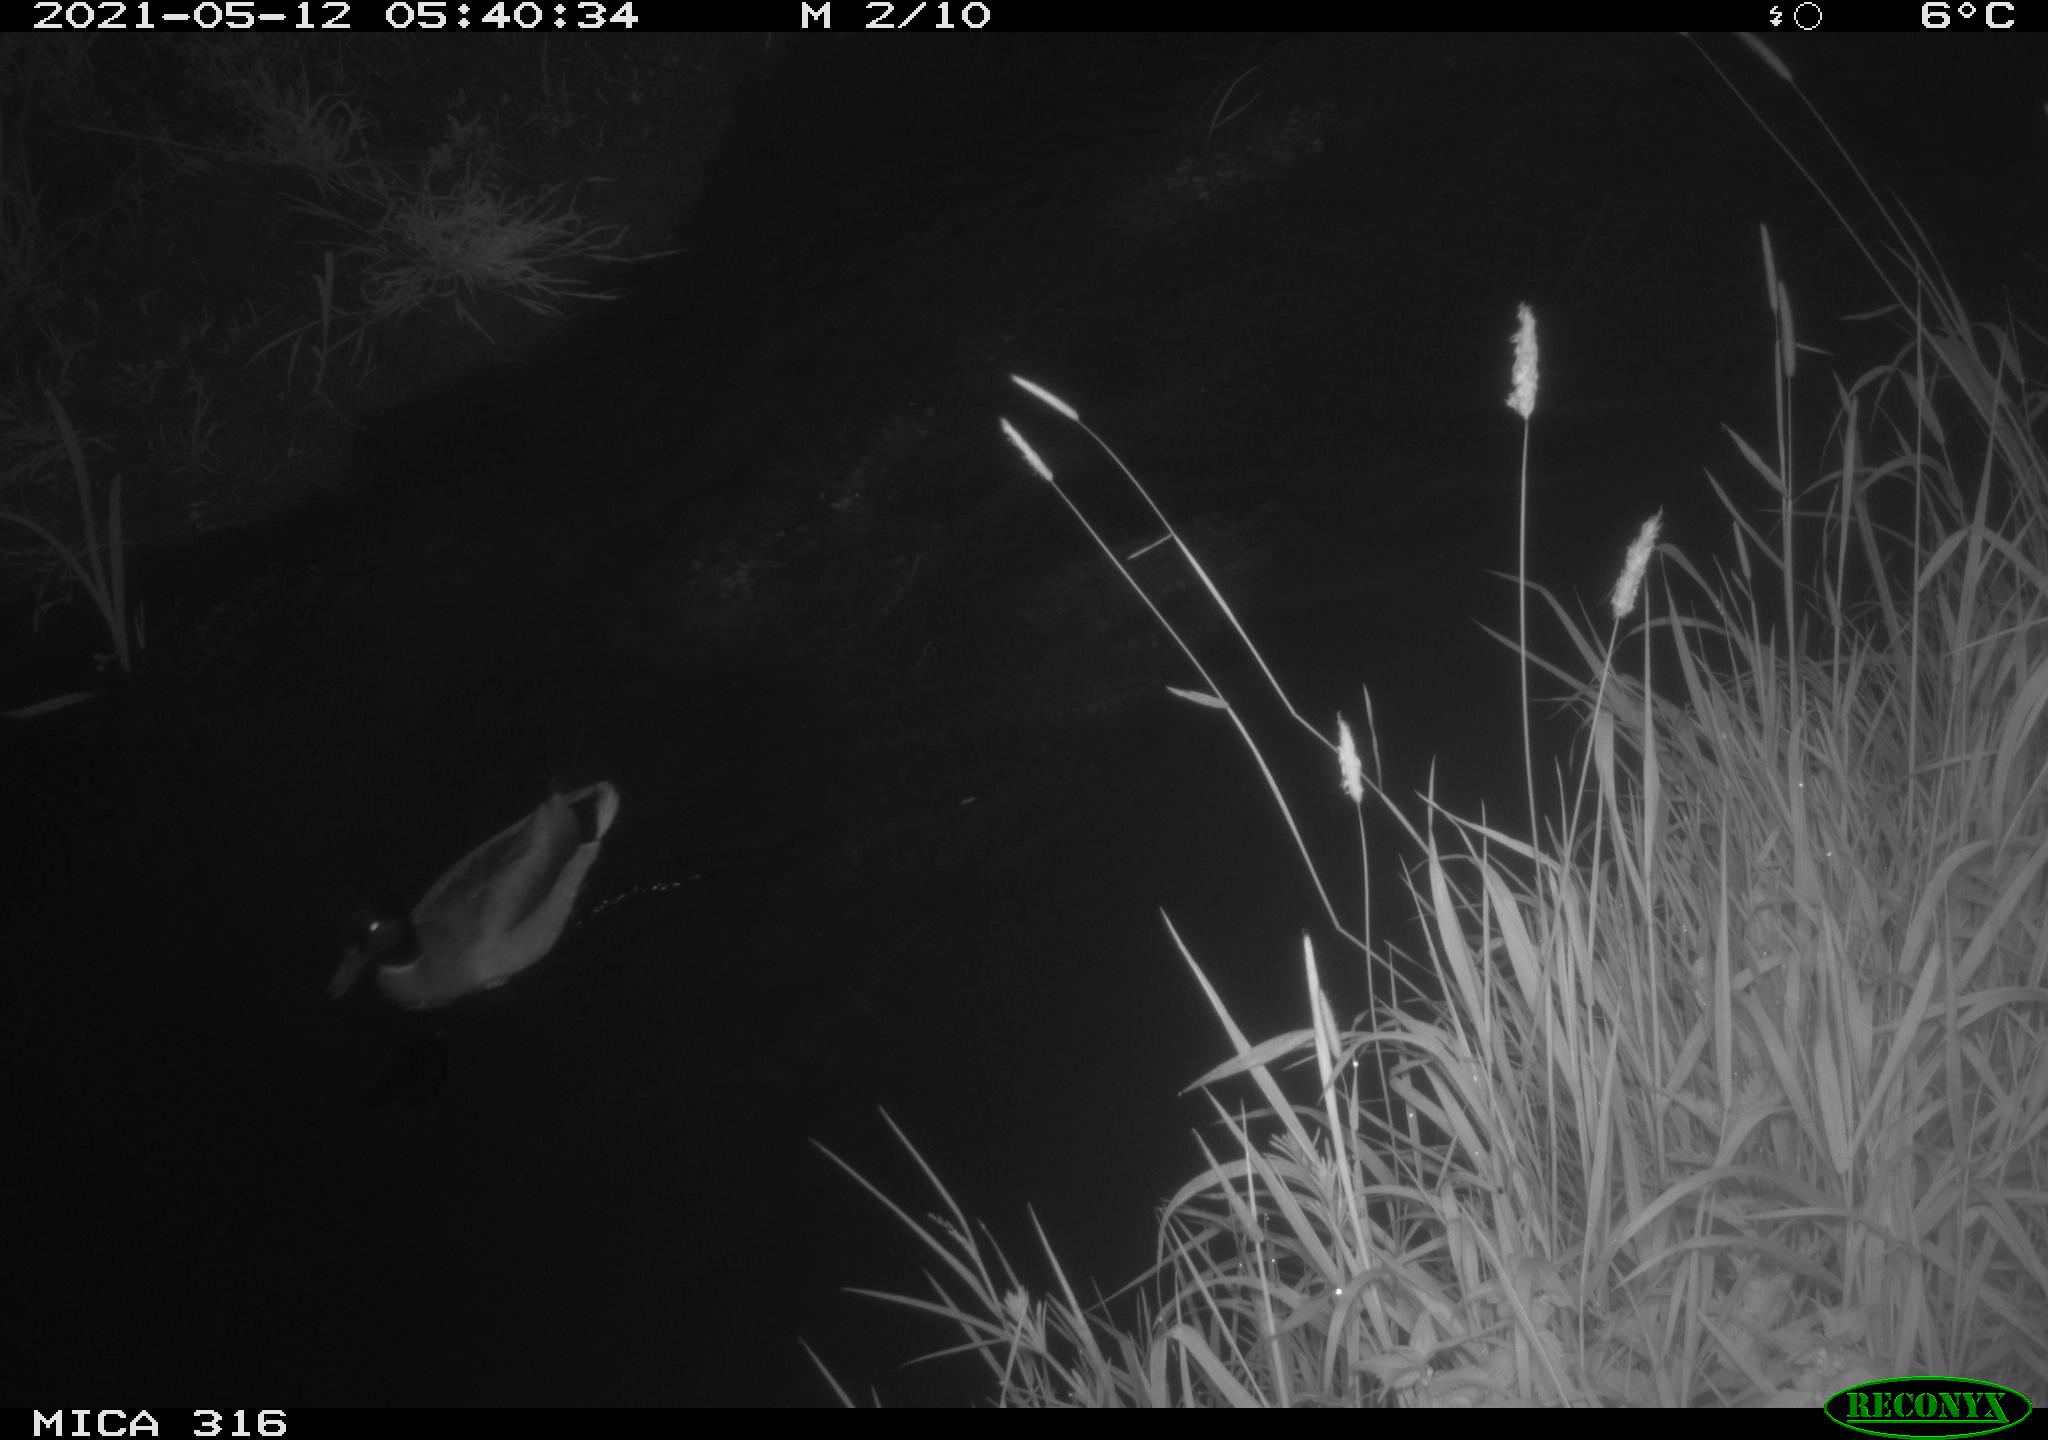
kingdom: Animalia
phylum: Chordata
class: Aves
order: Anseriformes
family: Anatidae
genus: Anas
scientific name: Anas platyrhynchos
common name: Mallard
